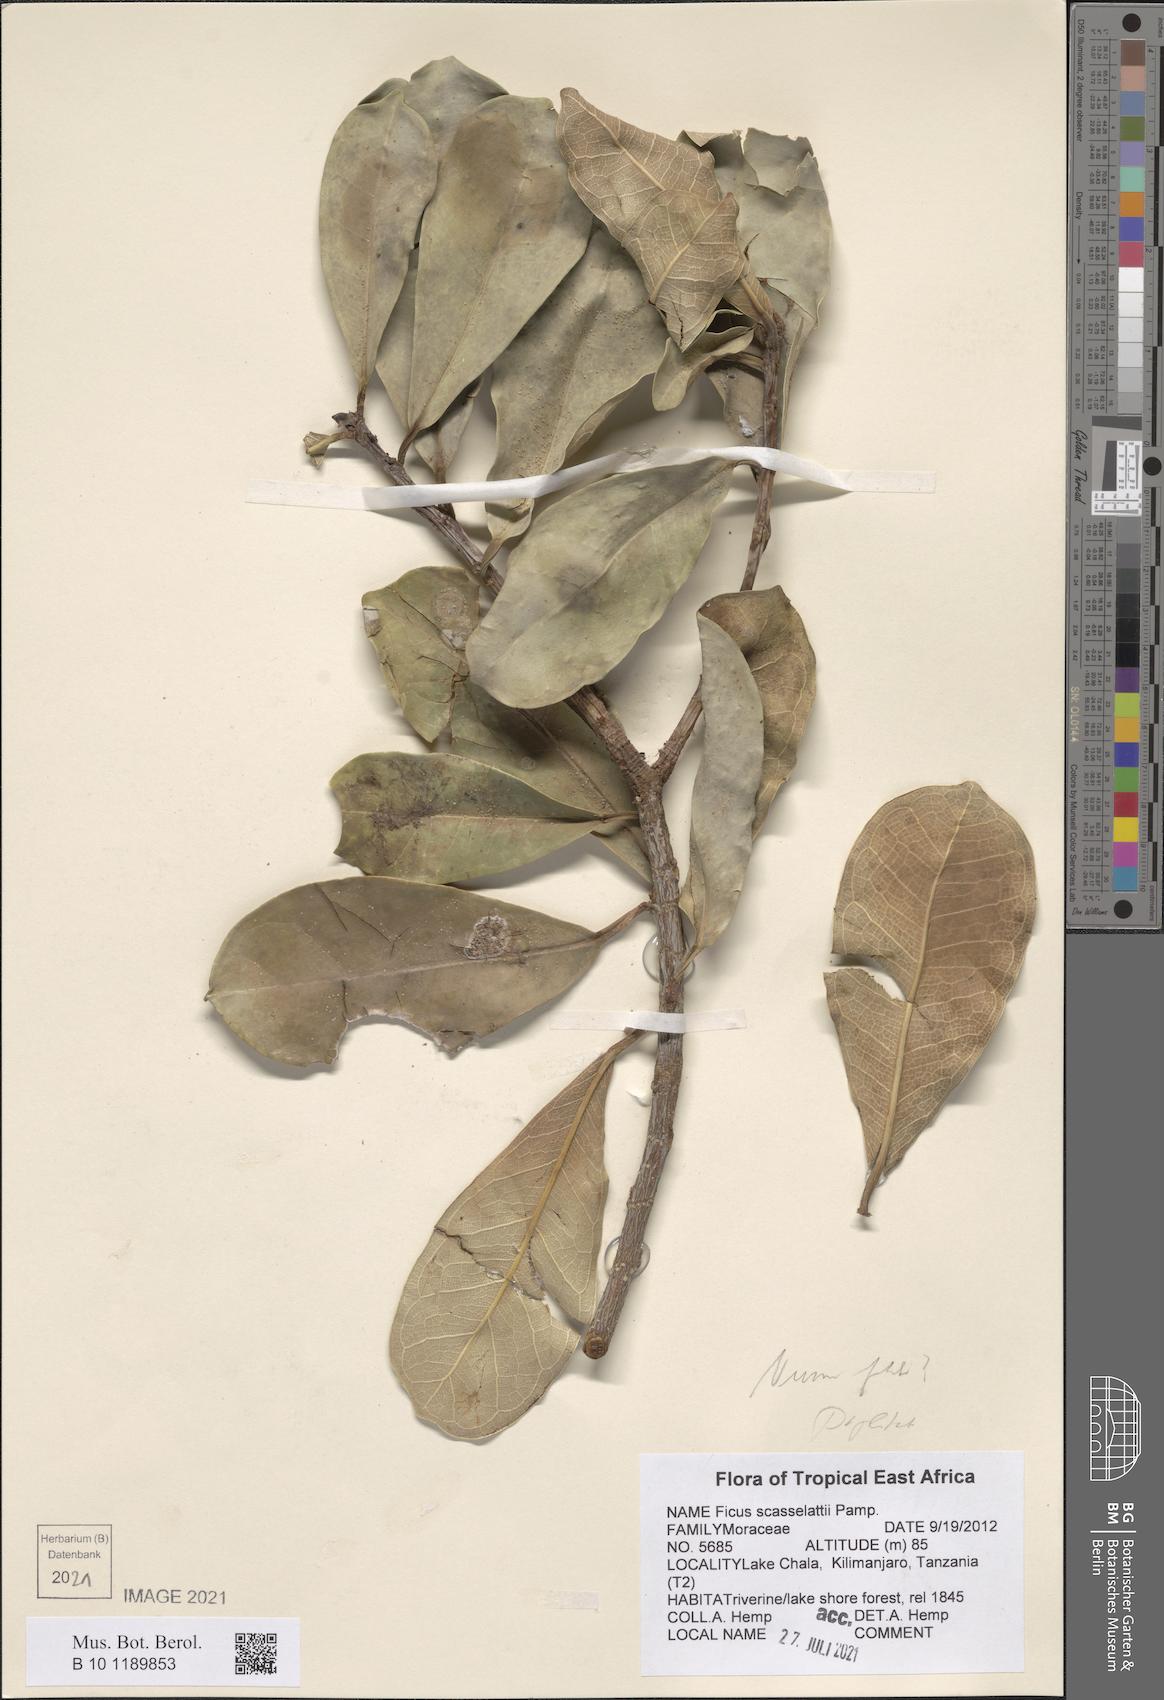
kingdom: Plantae
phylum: Tracheophyta
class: Magnoliopsida
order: Rosales
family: Moraceae
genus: Ficus
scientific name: Ficus scassellatii
